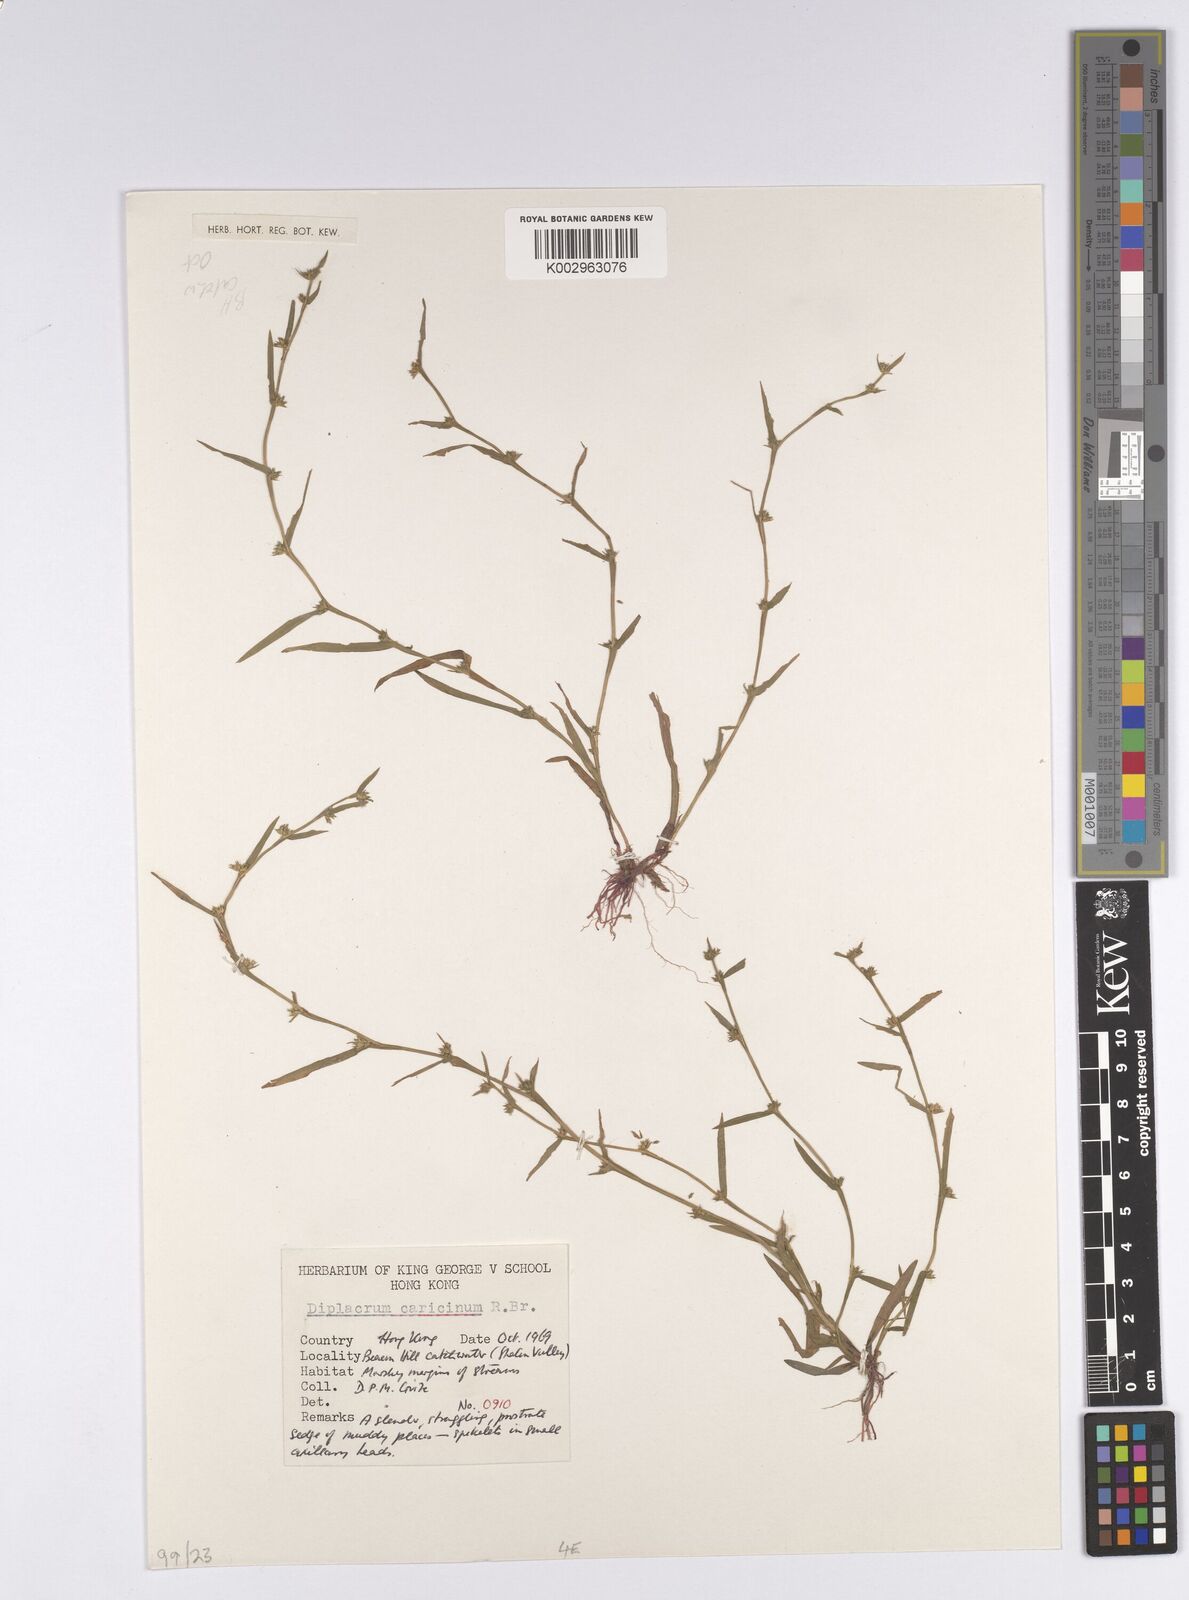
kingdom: Plantae
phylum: Tracheophyta
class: Liliopsida
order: Poales
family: Cyperaceae
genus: Diplacrum
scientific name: Diplacrum caricinum
